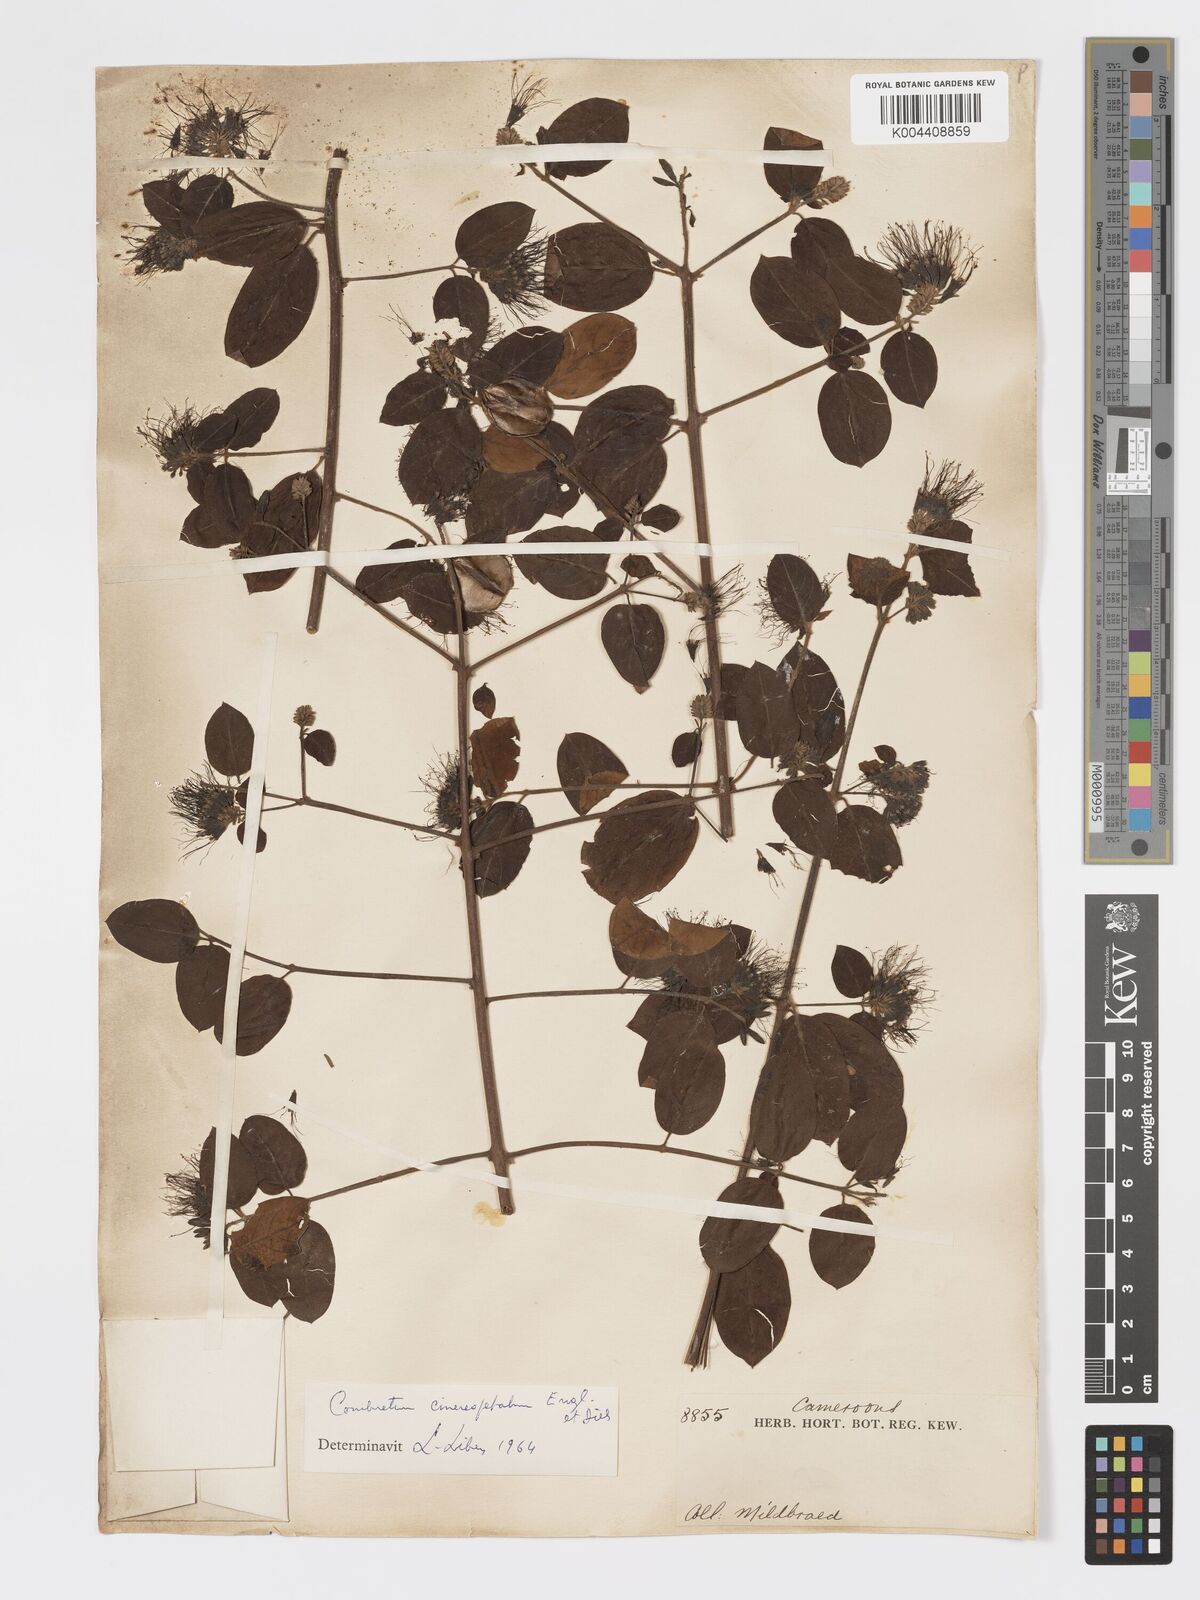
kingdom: Plantae
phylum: Tracheophyta
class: Magnoliopsida
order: Myrtales
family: Combretaceae
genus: Combretum
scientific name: Combretum cinereopetalum
